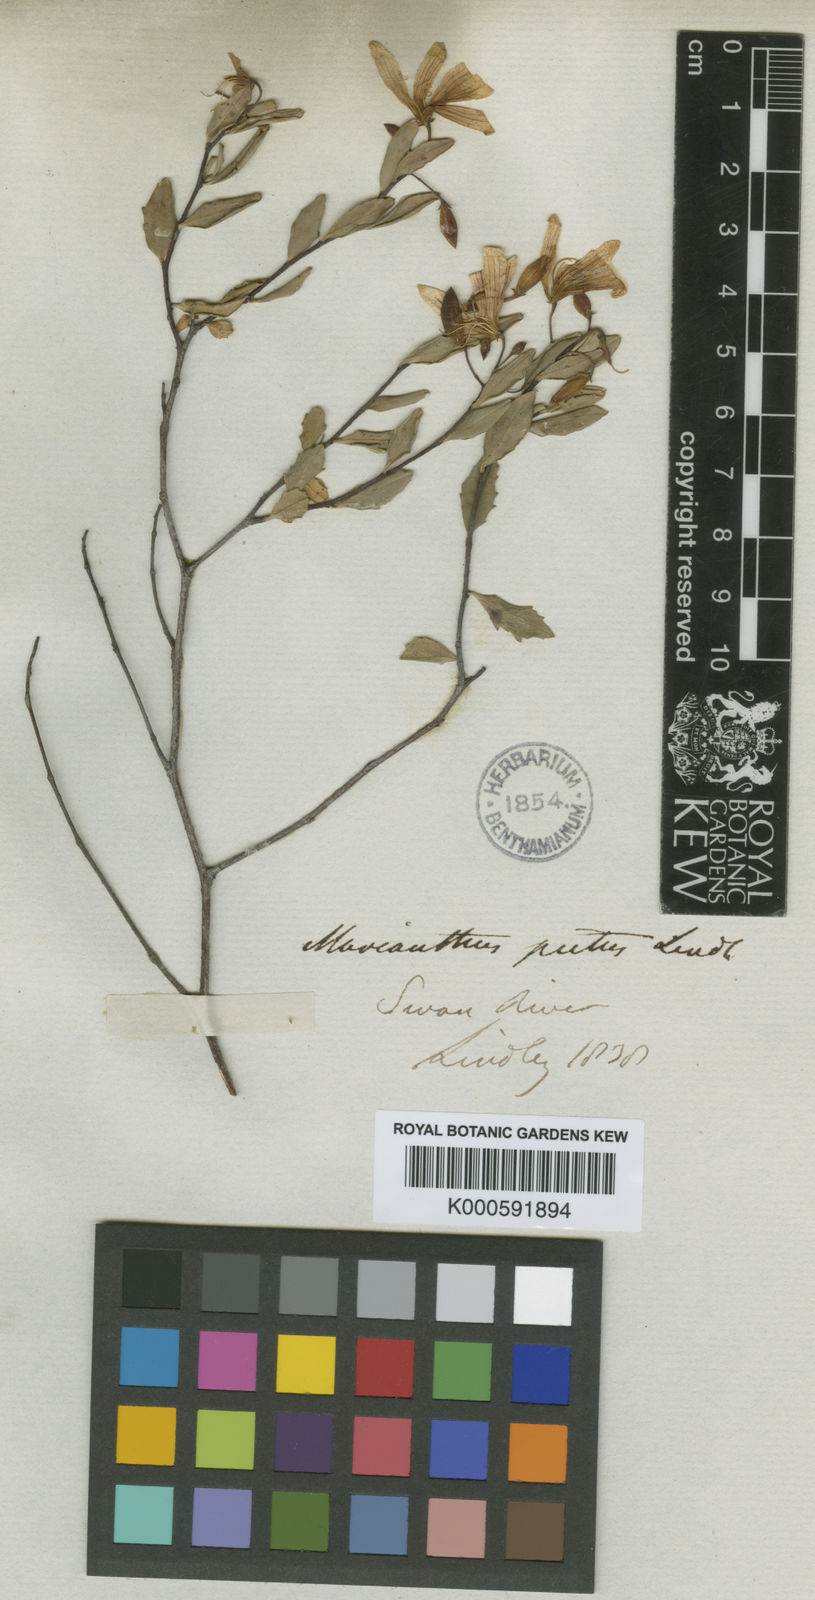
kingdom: Plantae
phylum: Tracheophyta
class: Magnoliopsida
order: Apiales
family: Pittosporaceae
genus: Marianthus
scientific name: Marianthus bicolor
